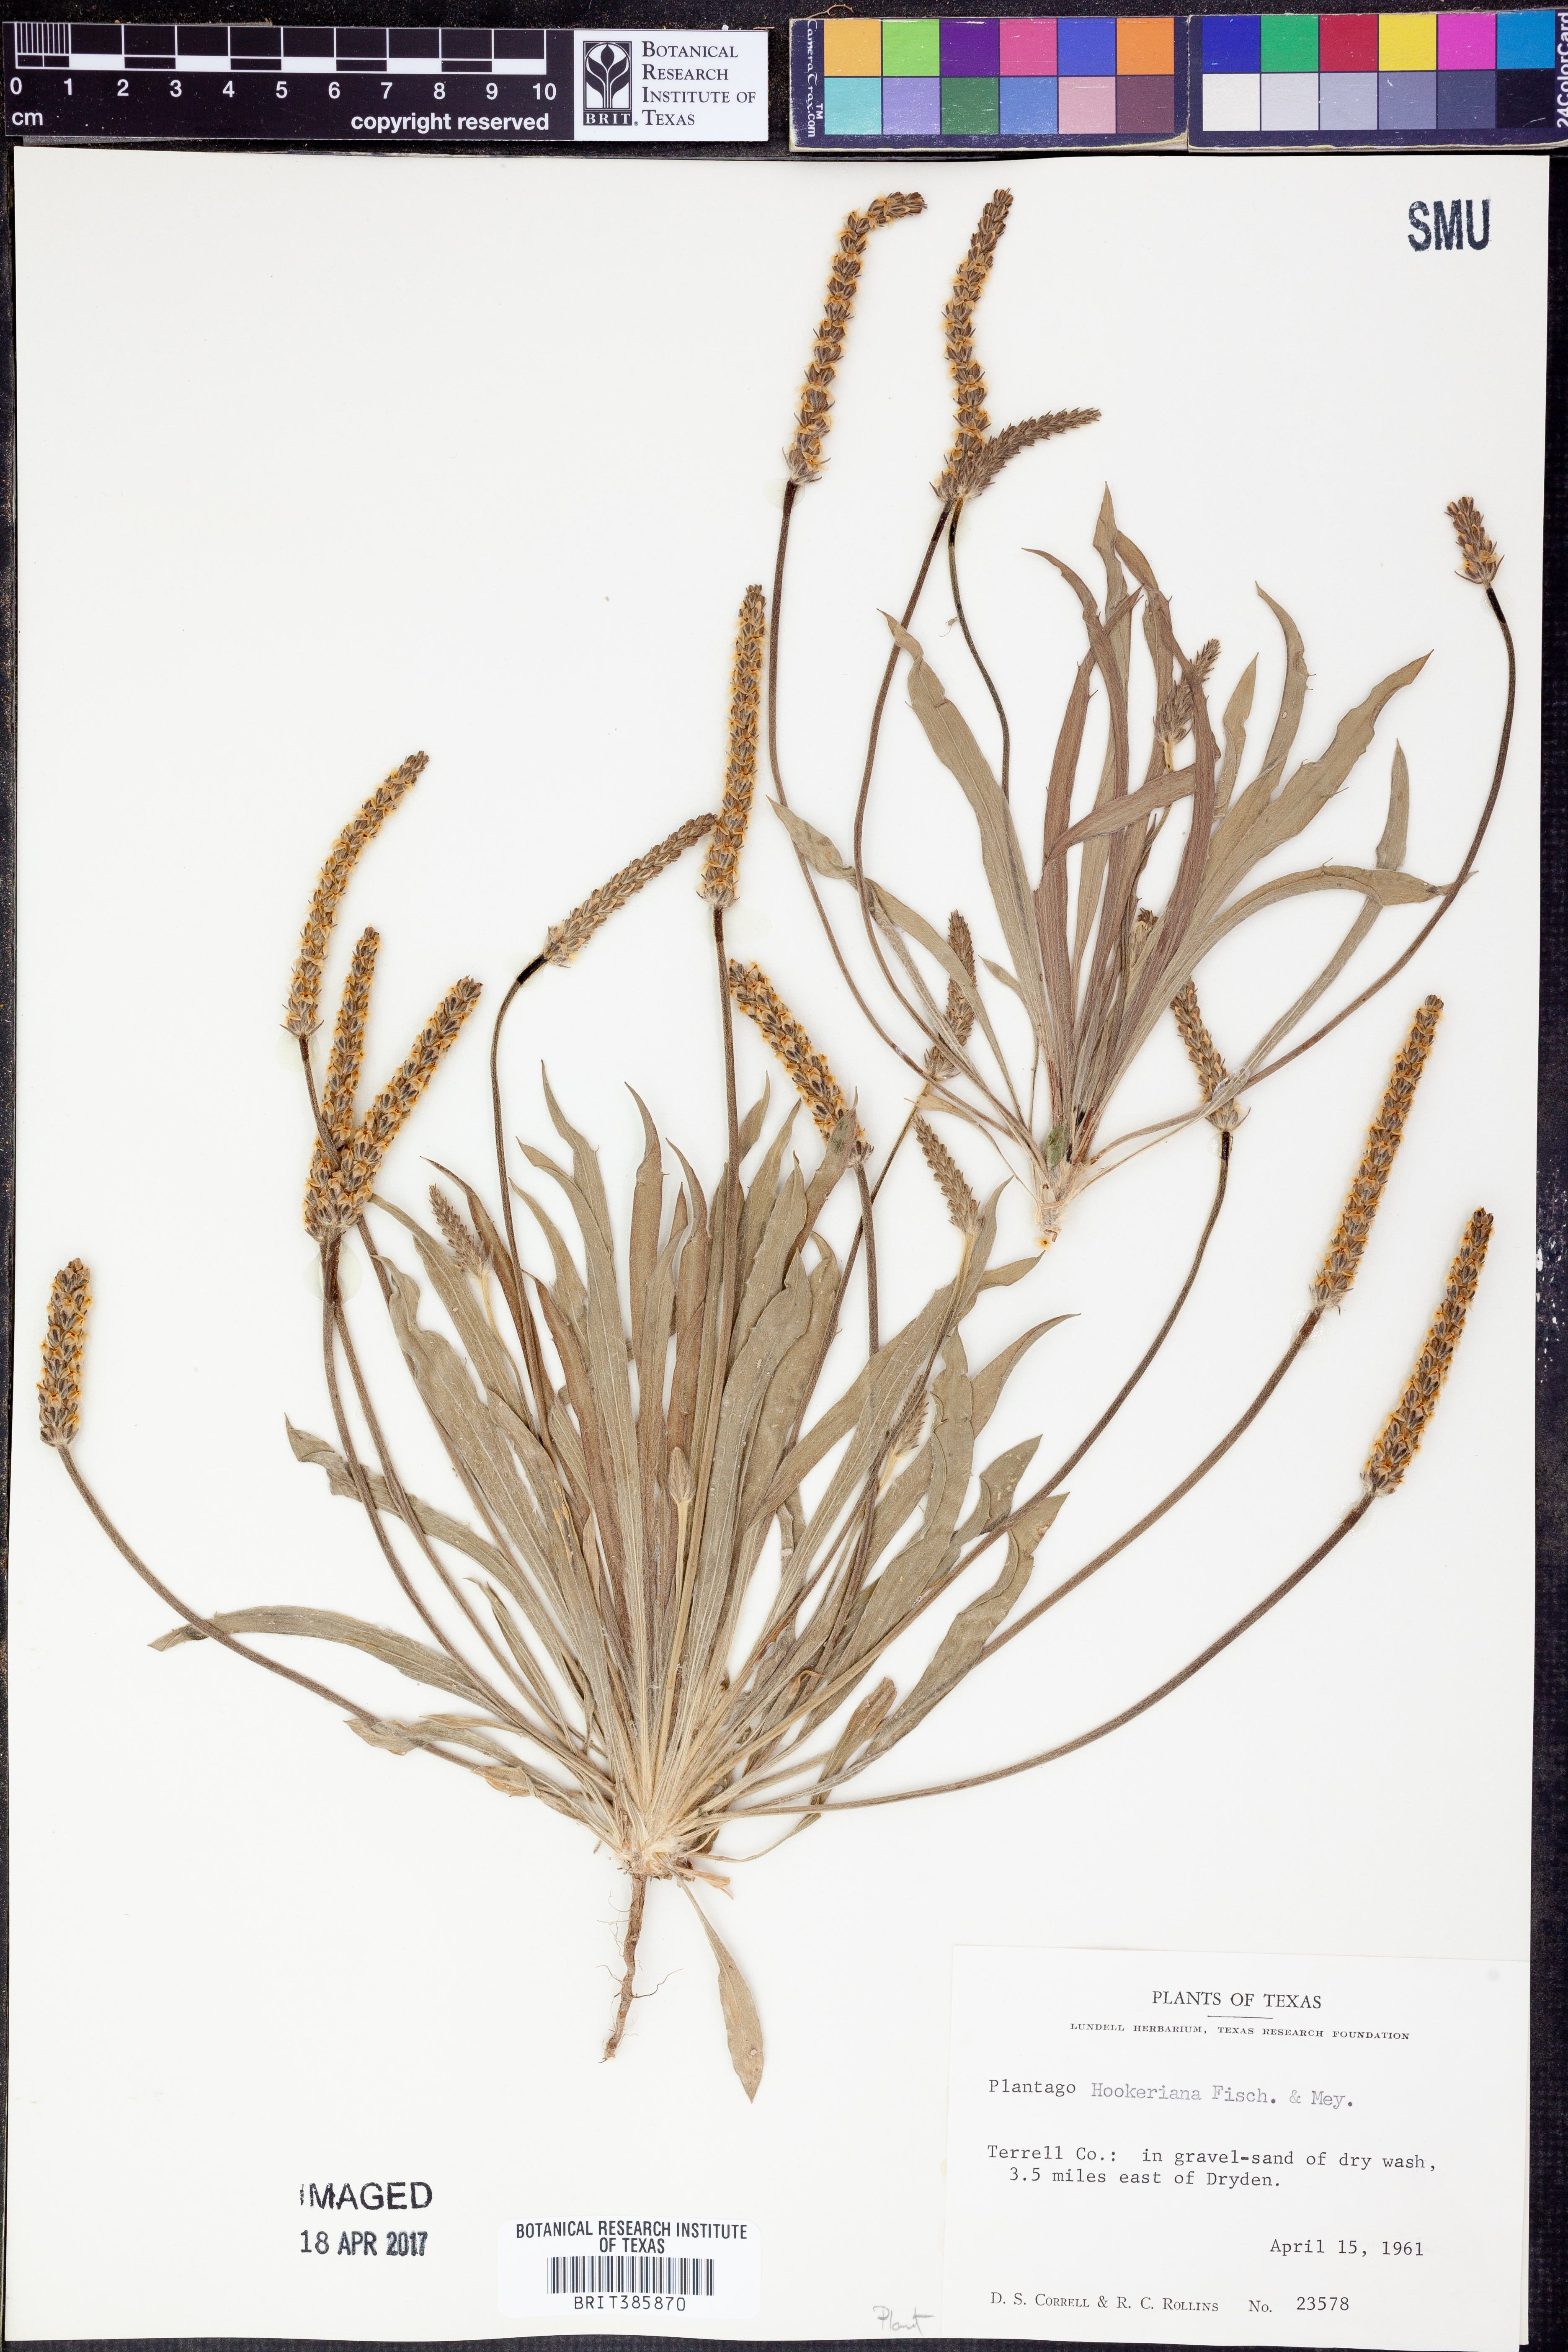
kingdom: Plantae
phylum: Tracheophyta
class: Magnoliopsida
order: Lamiales
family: Plantaginaceae
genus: Plantago
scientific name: Plantago hookeriana
